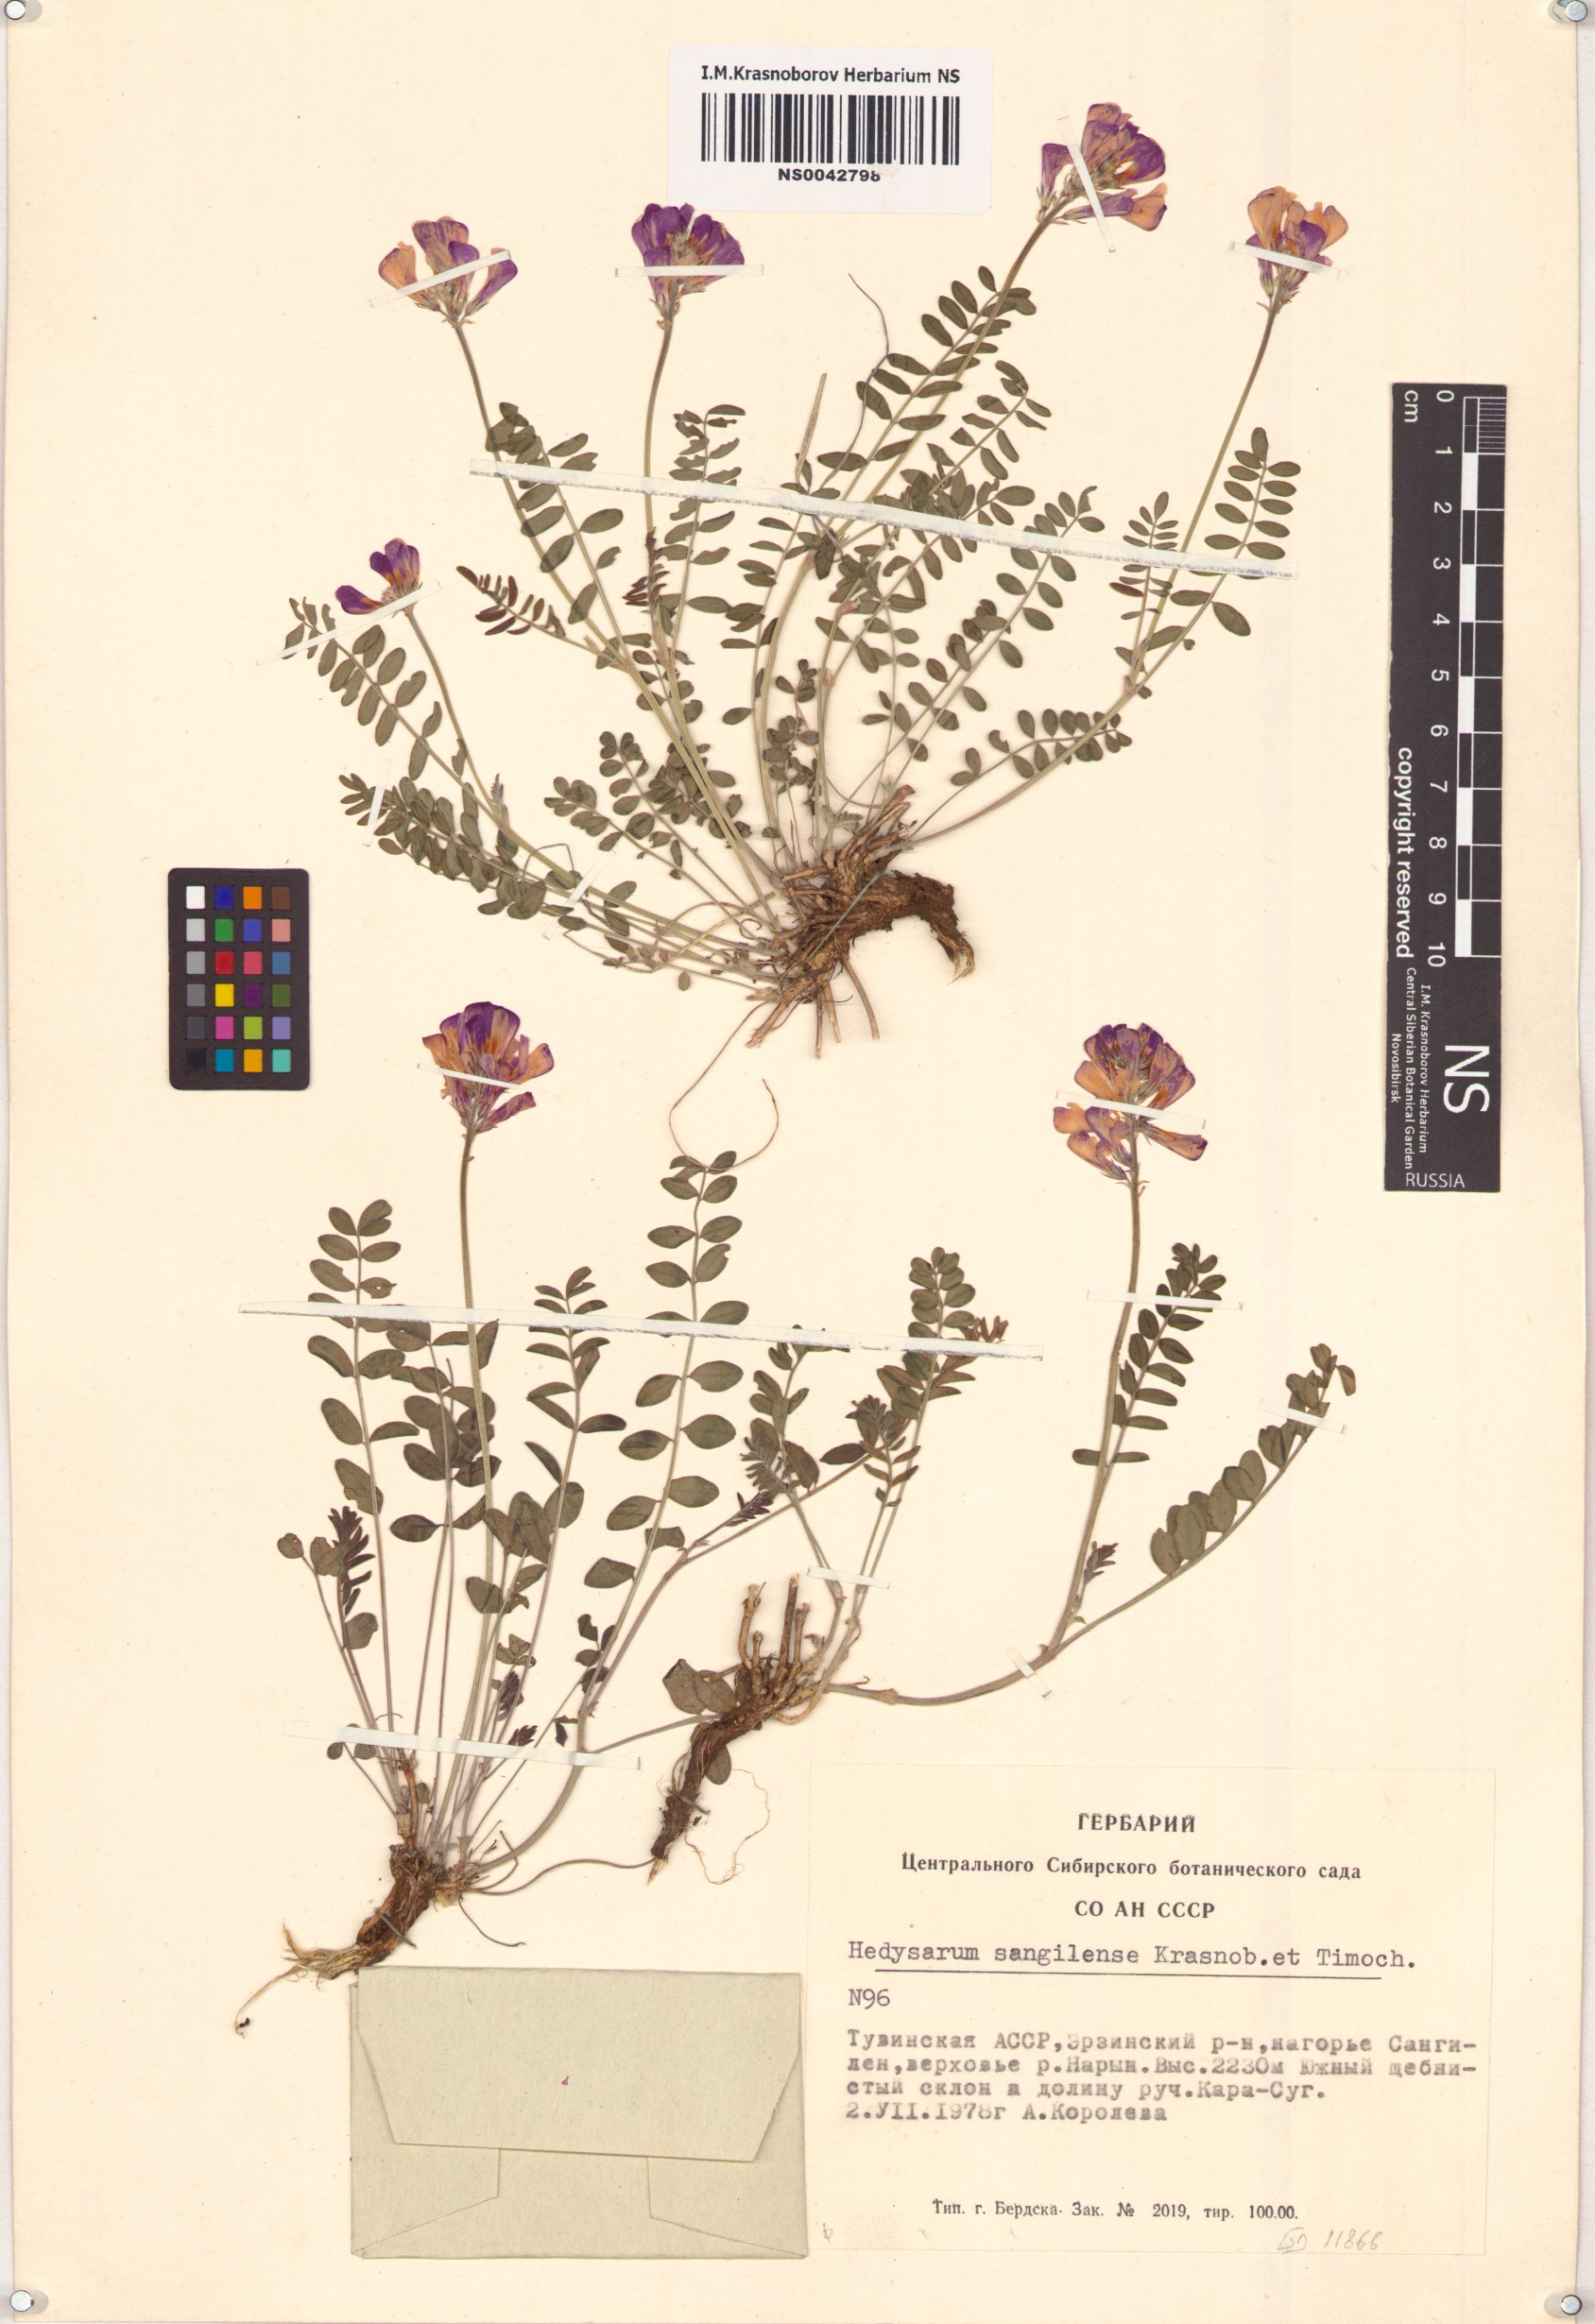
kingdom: Plantae
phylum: Tracheophyta
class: Magnoliopsida
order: Fabales
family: Fabaceae
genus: Hedysarum
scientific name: Hedysarum sangilense
